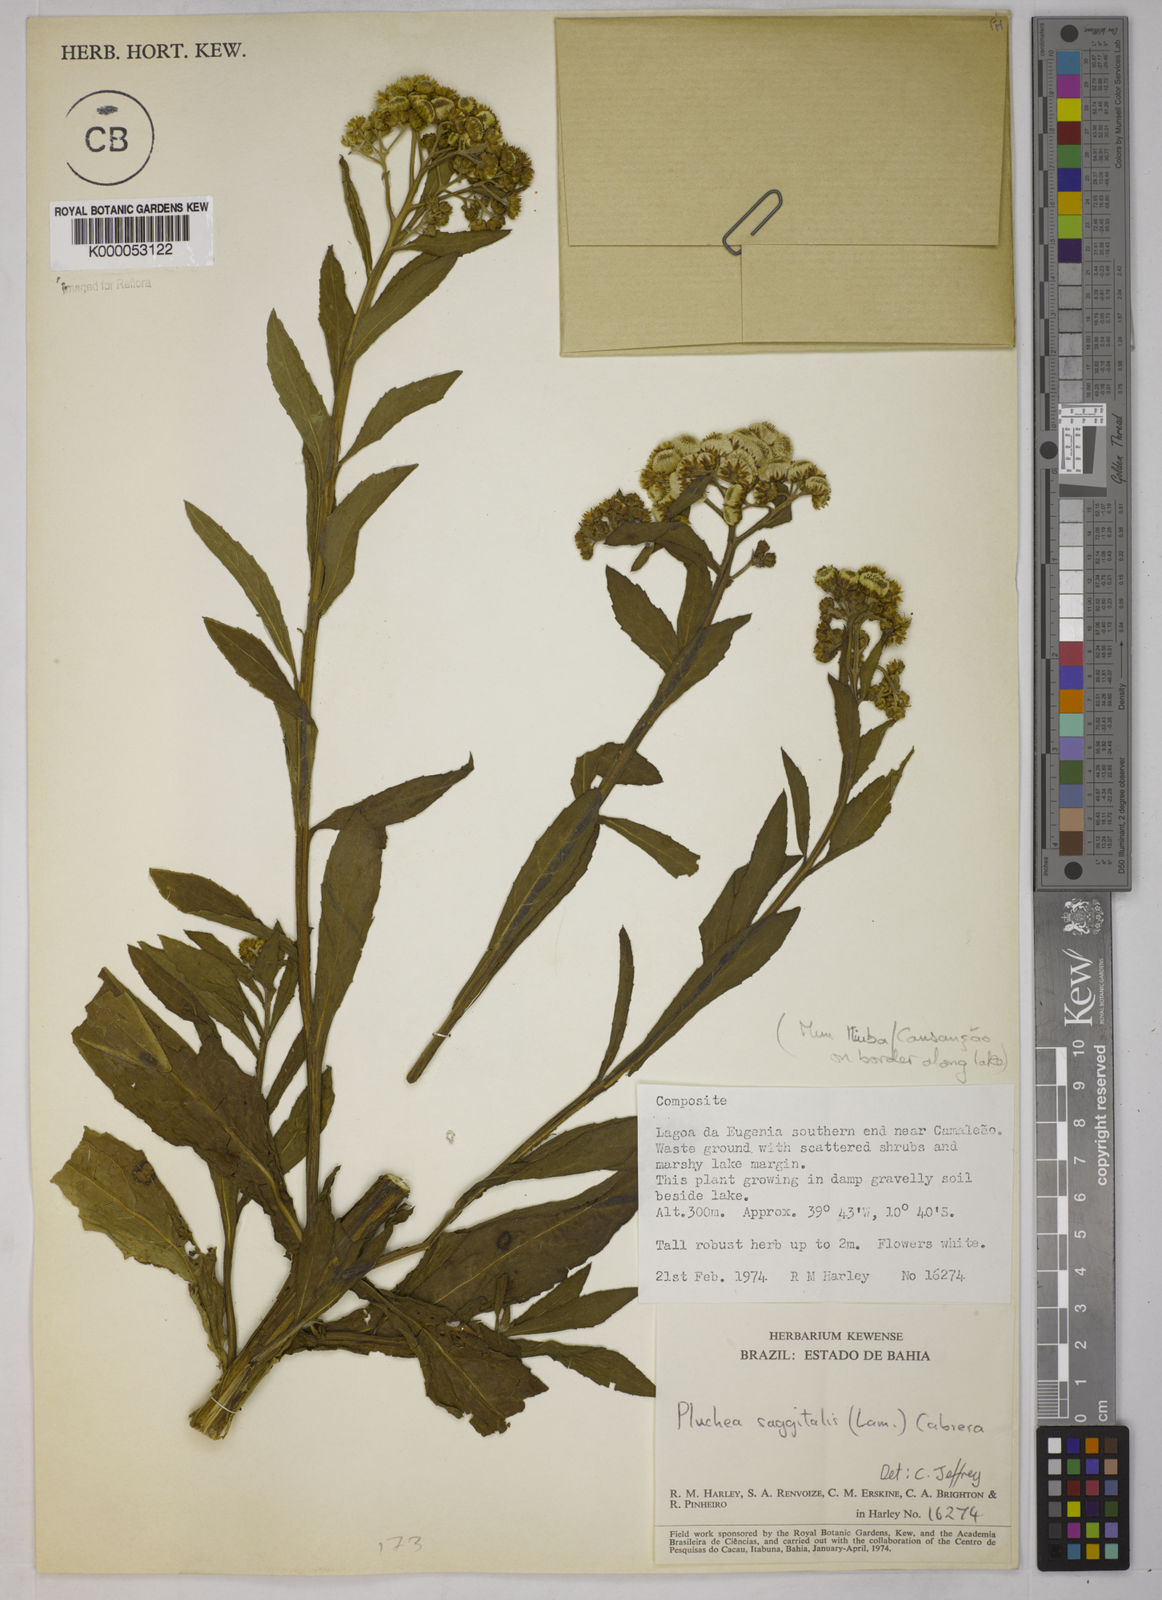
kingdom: Plantae
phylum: Tracheophyta
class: Magnoliopsida
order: Asterales
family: Asteraceae
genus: Pluchea
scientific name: Pluchea sagittalis
